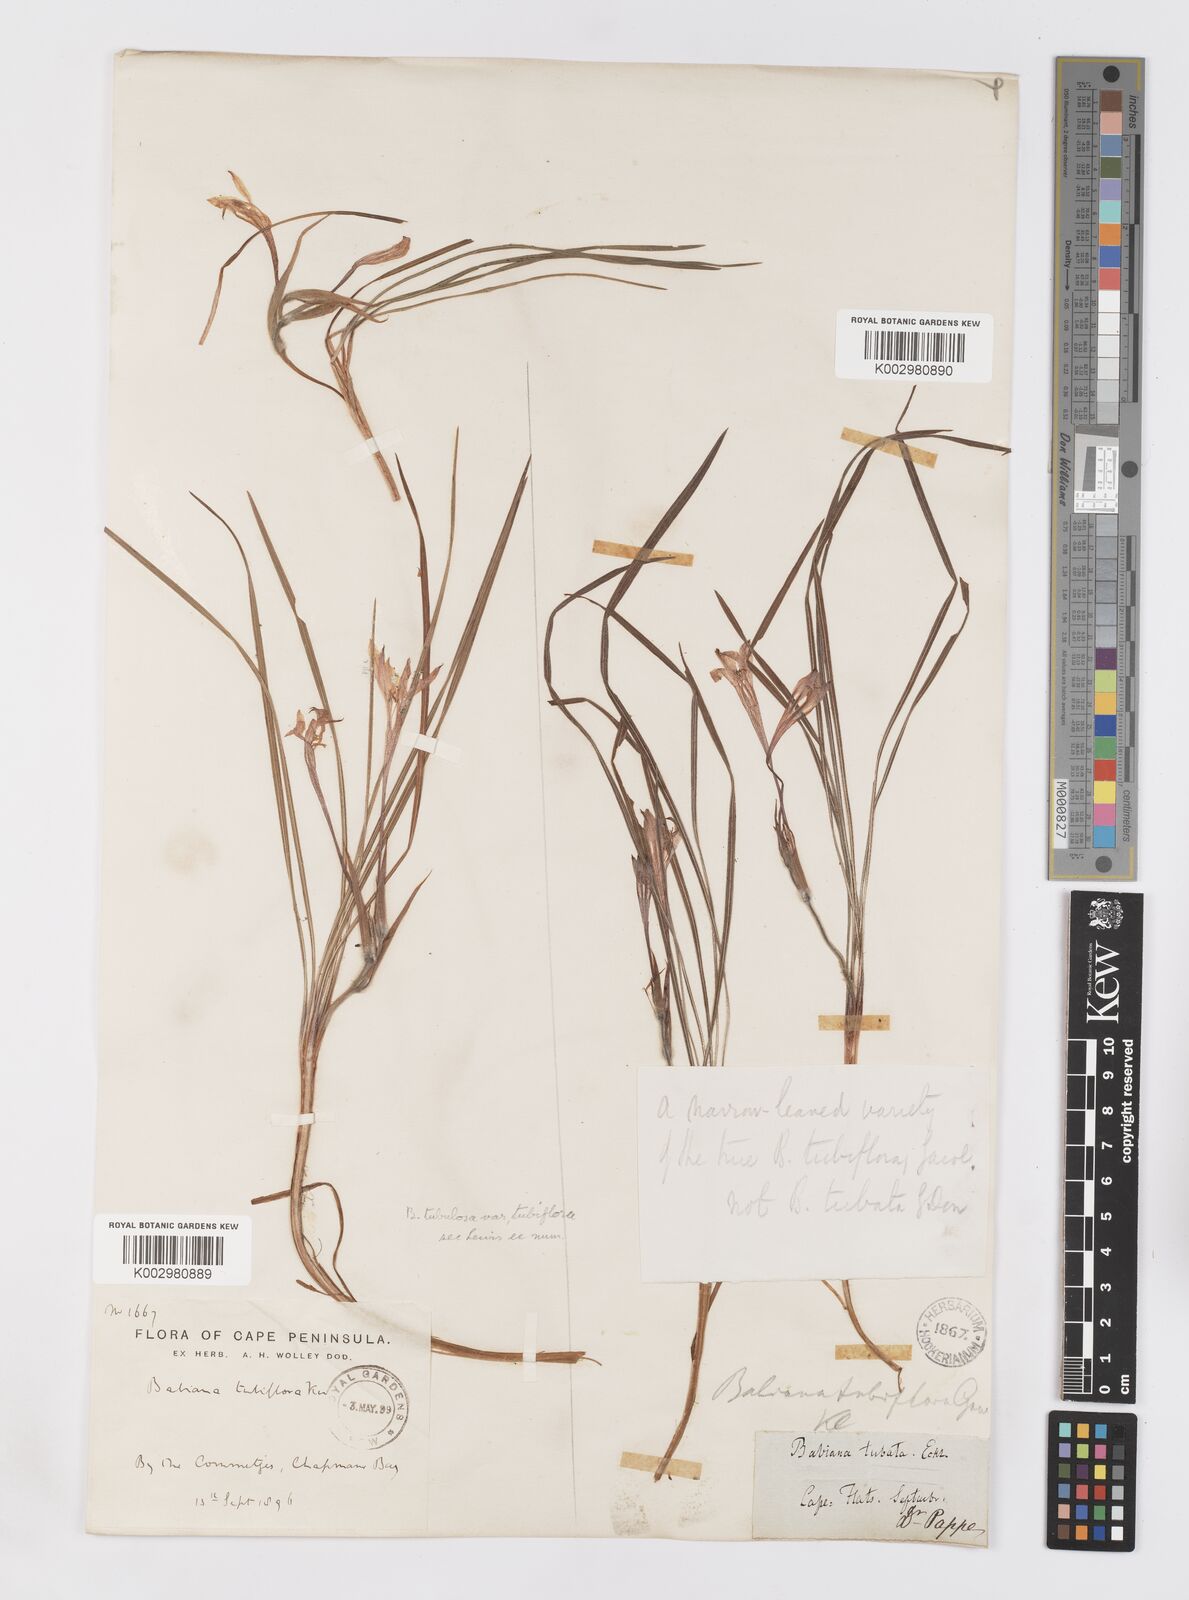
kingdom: Plantae
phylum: Tracheophyta
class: Liliopsida
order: Asparagales
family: Iridaceae
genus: Babiana
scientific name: Babiana tubiflora
